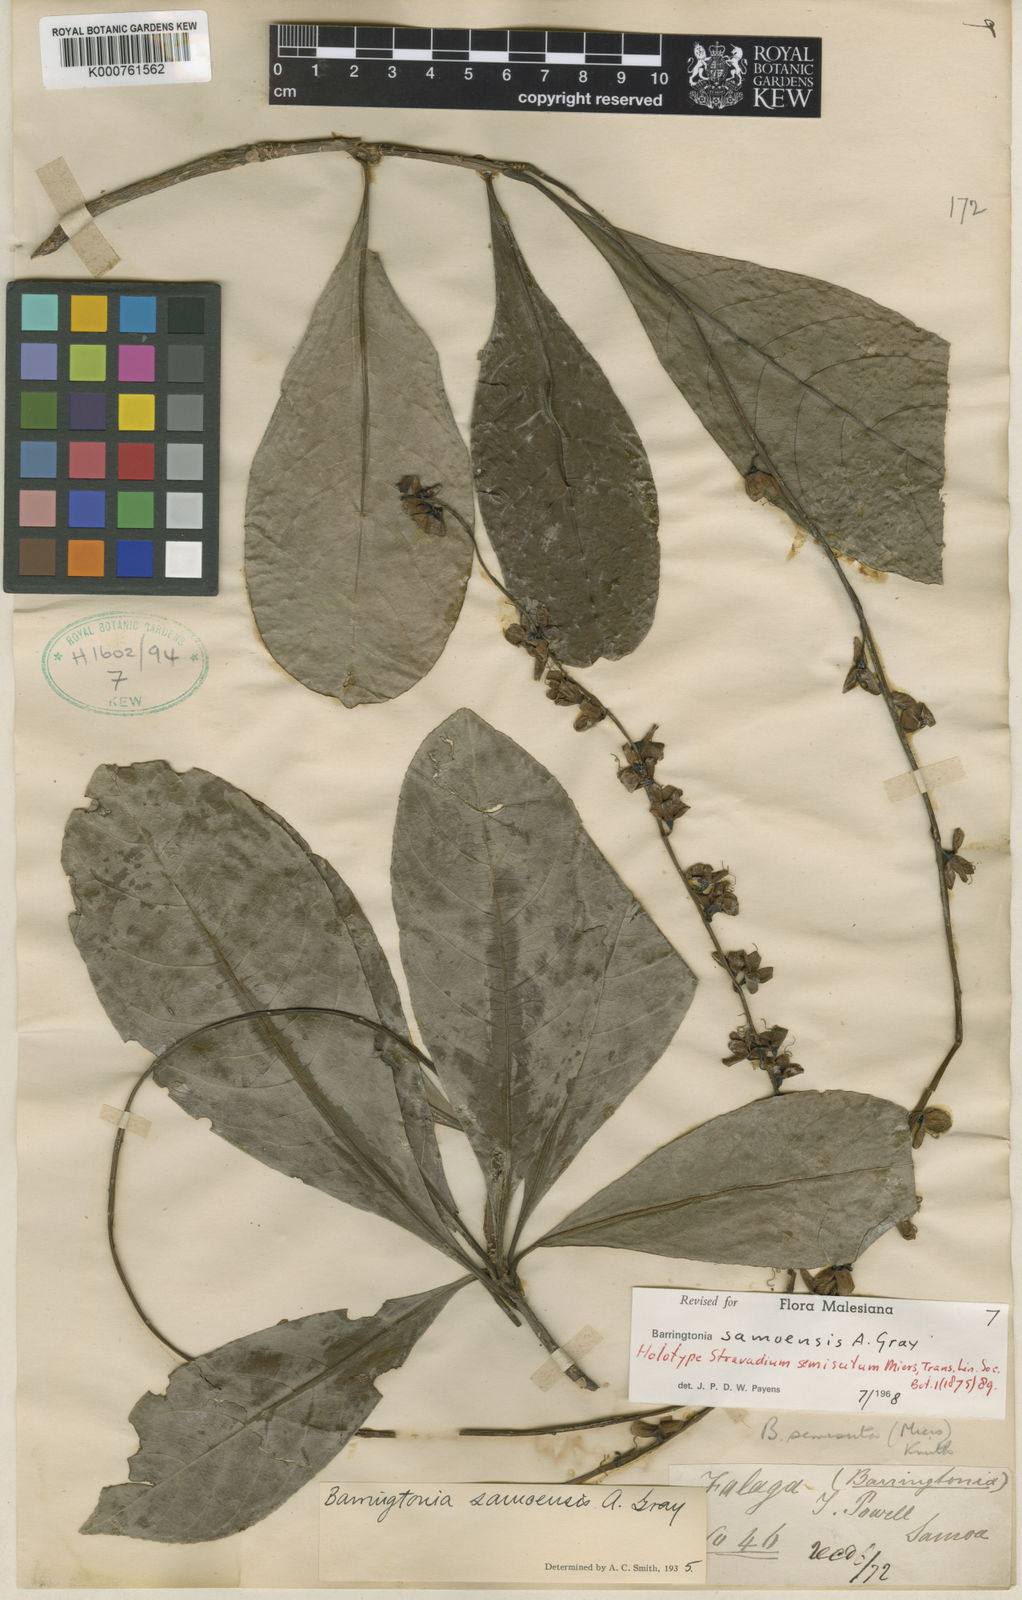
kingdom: Plantae
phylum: Tracheophyta
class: Magnoliopsida
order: Ericales
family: Lecythidaceae
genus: Barringtonia
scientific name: Barringtonia samoensis
